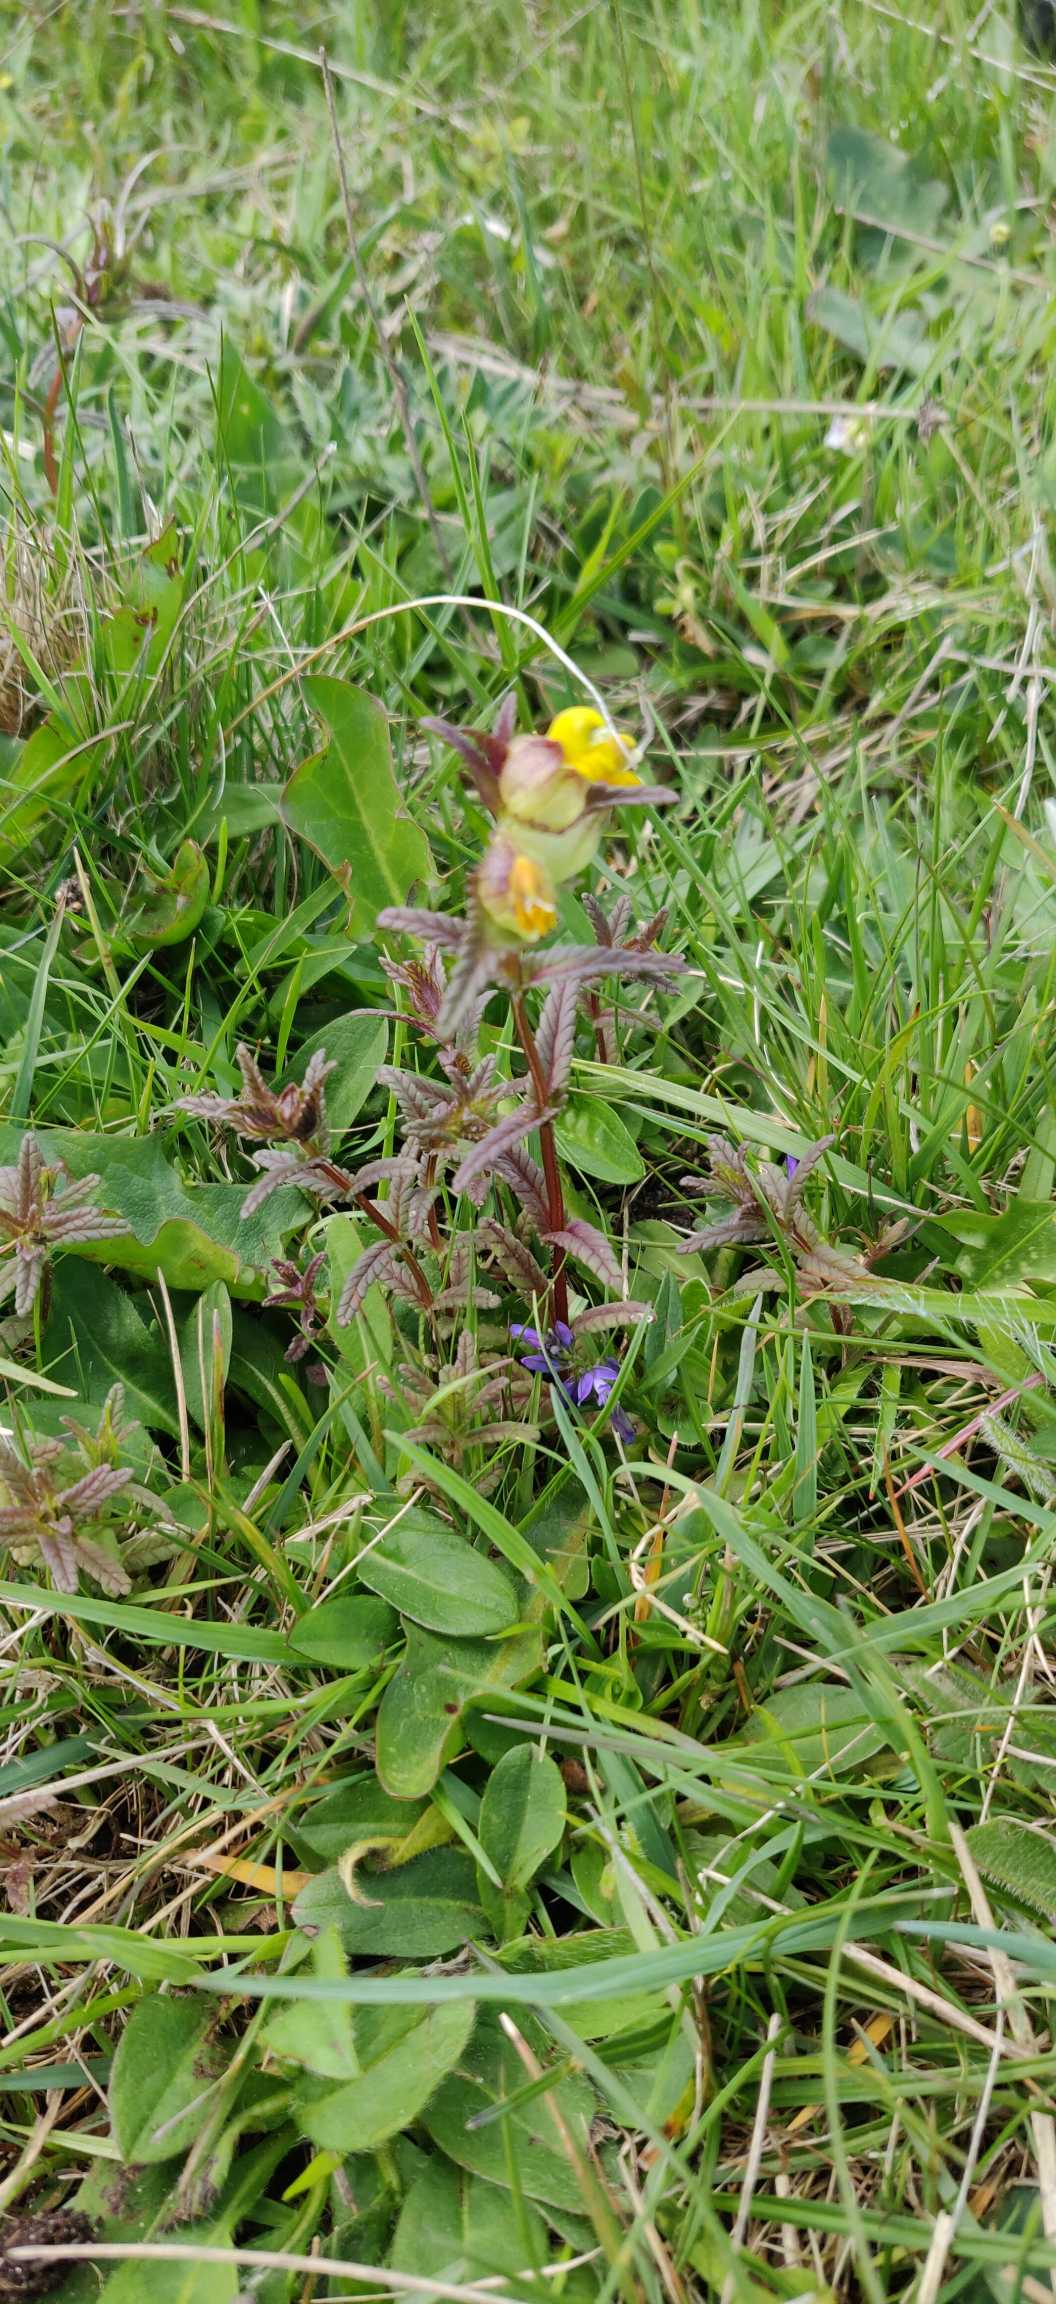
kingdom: Plantae
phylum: Tracheophyta
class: Magnoliopsida
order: Lamiales
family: Orobanchaceae
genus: Rhinanthus
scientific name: Rhinanthus minor
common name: Liden skjaller
